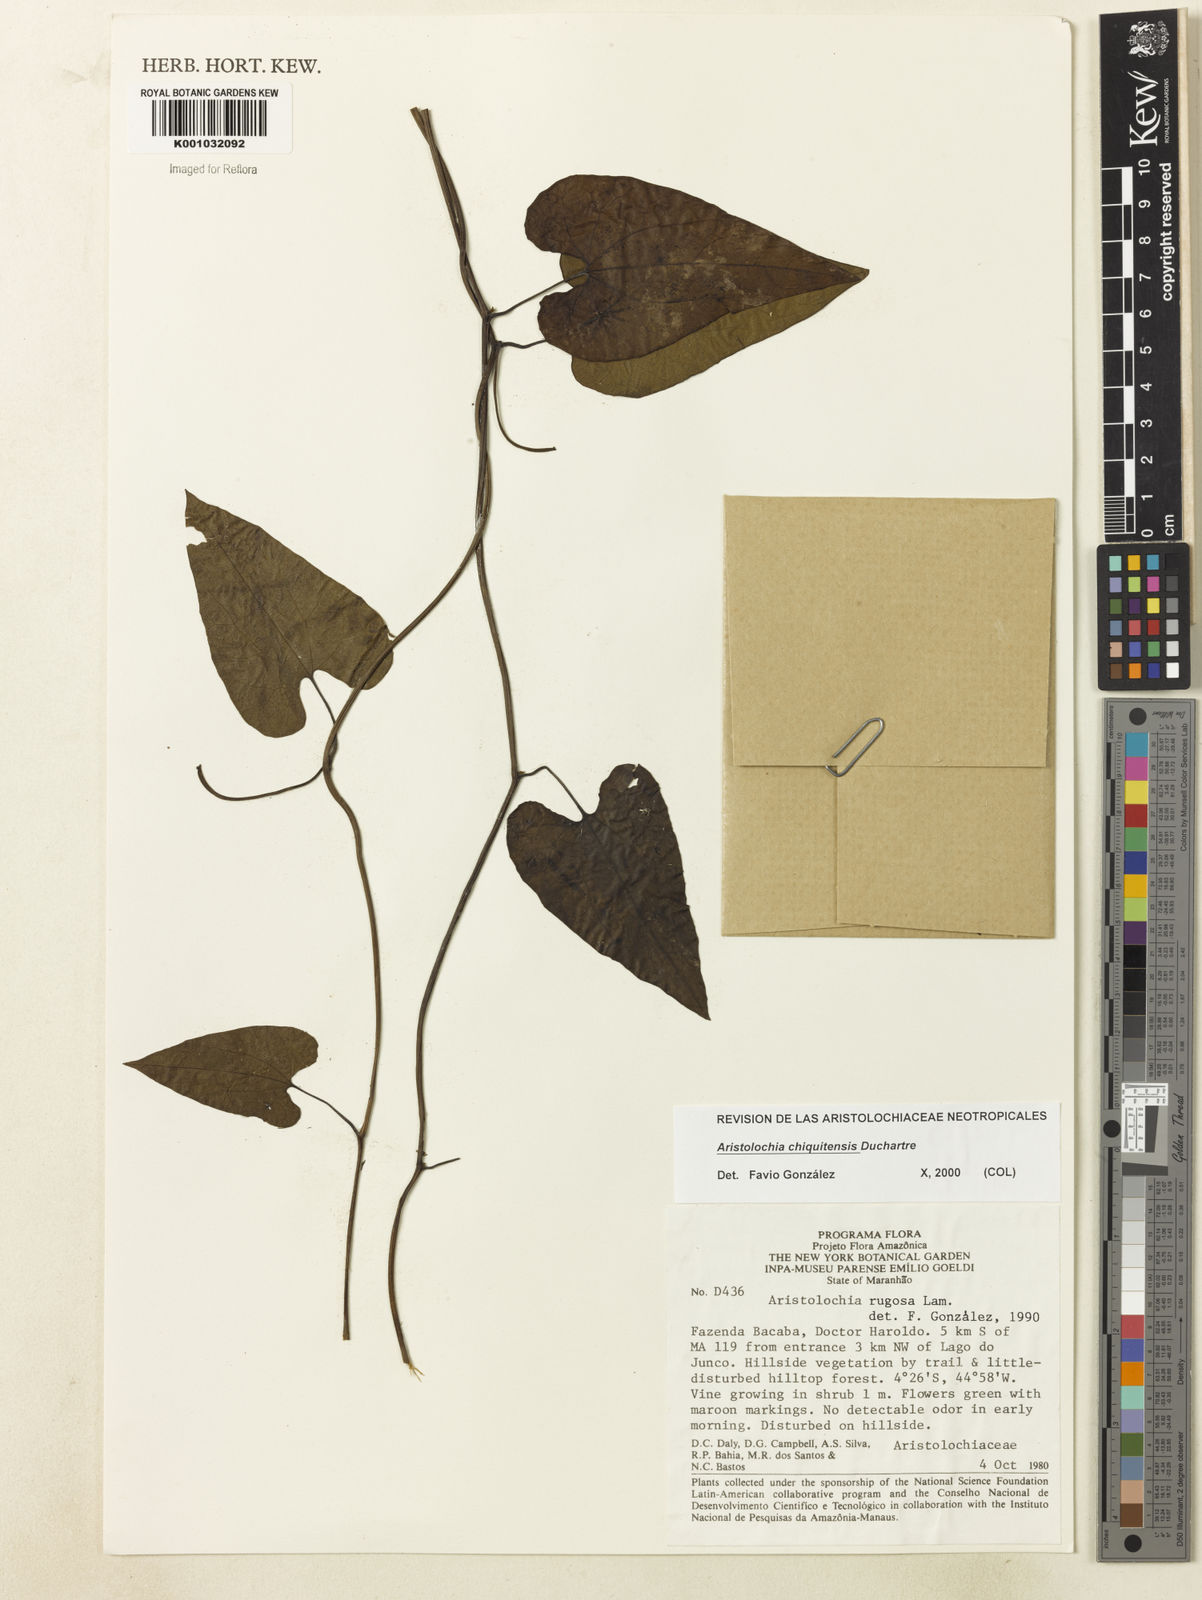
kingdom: Plantae
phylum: Tracheophyta
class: Magnoliopsida
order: Piperales
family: Aristolochiaceae
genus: Aristolochia
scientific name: Aristolochia chiquitensis
